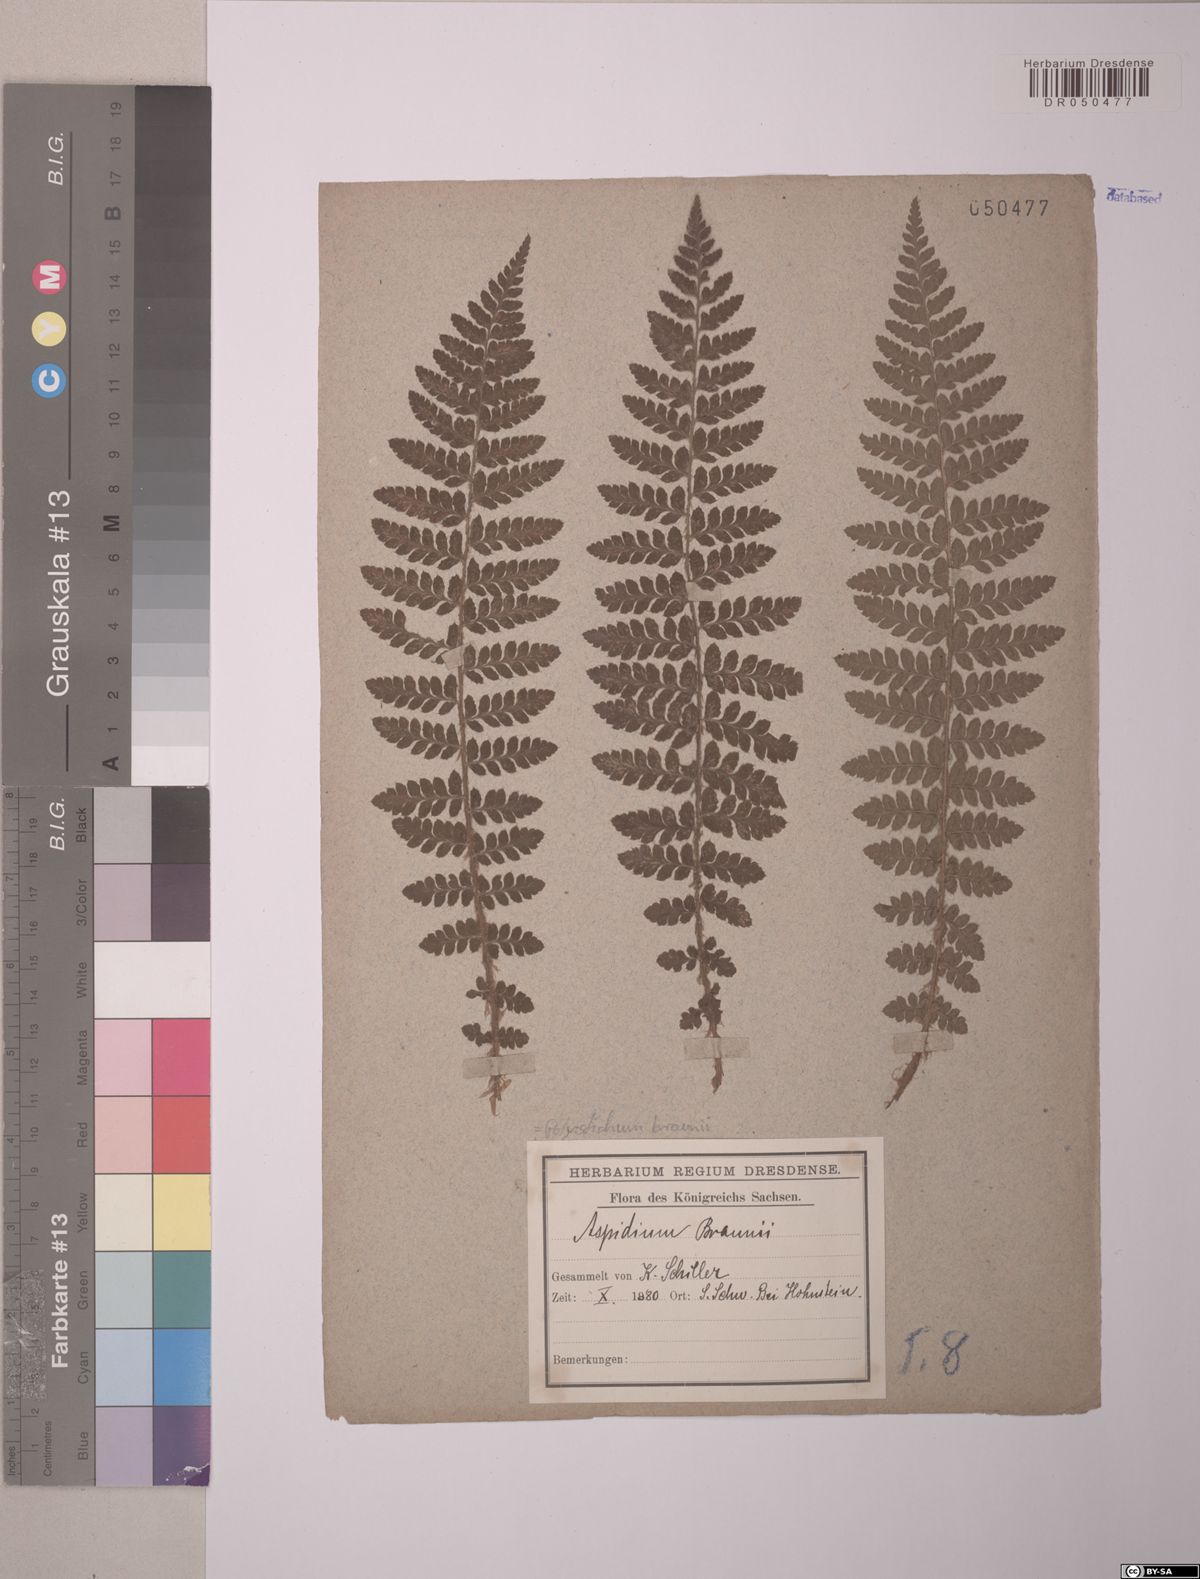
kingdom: Plantae
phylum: Tracheophyta
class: Polypodiopsida
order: Polypodiales
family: Dryopteridaceae
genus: Polystichum
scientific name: Polystichum braunii
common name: Braun's holly fern
